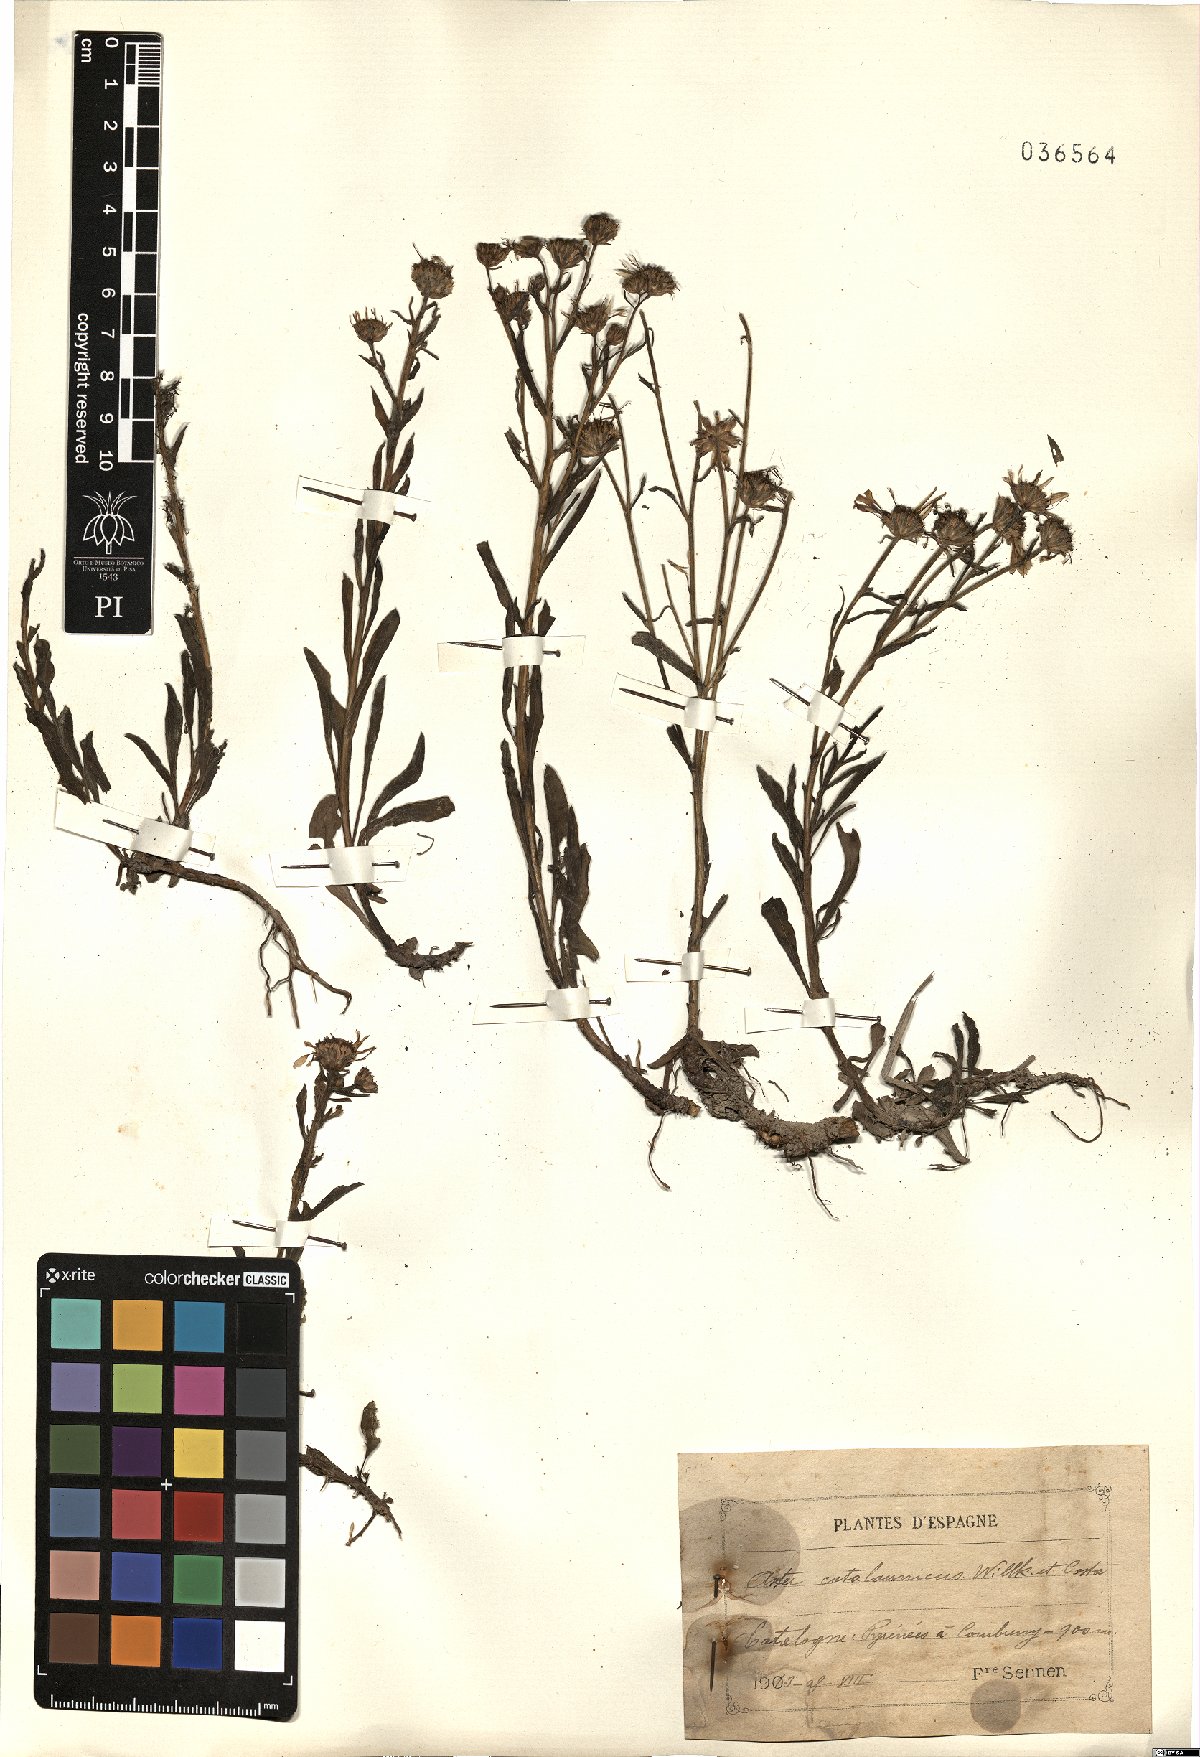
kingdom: Plantae
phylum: Tracheophyta
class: Magnoliopsida
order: Asterales
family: Asteraceae
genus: Aster
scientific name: Aster willkommii
